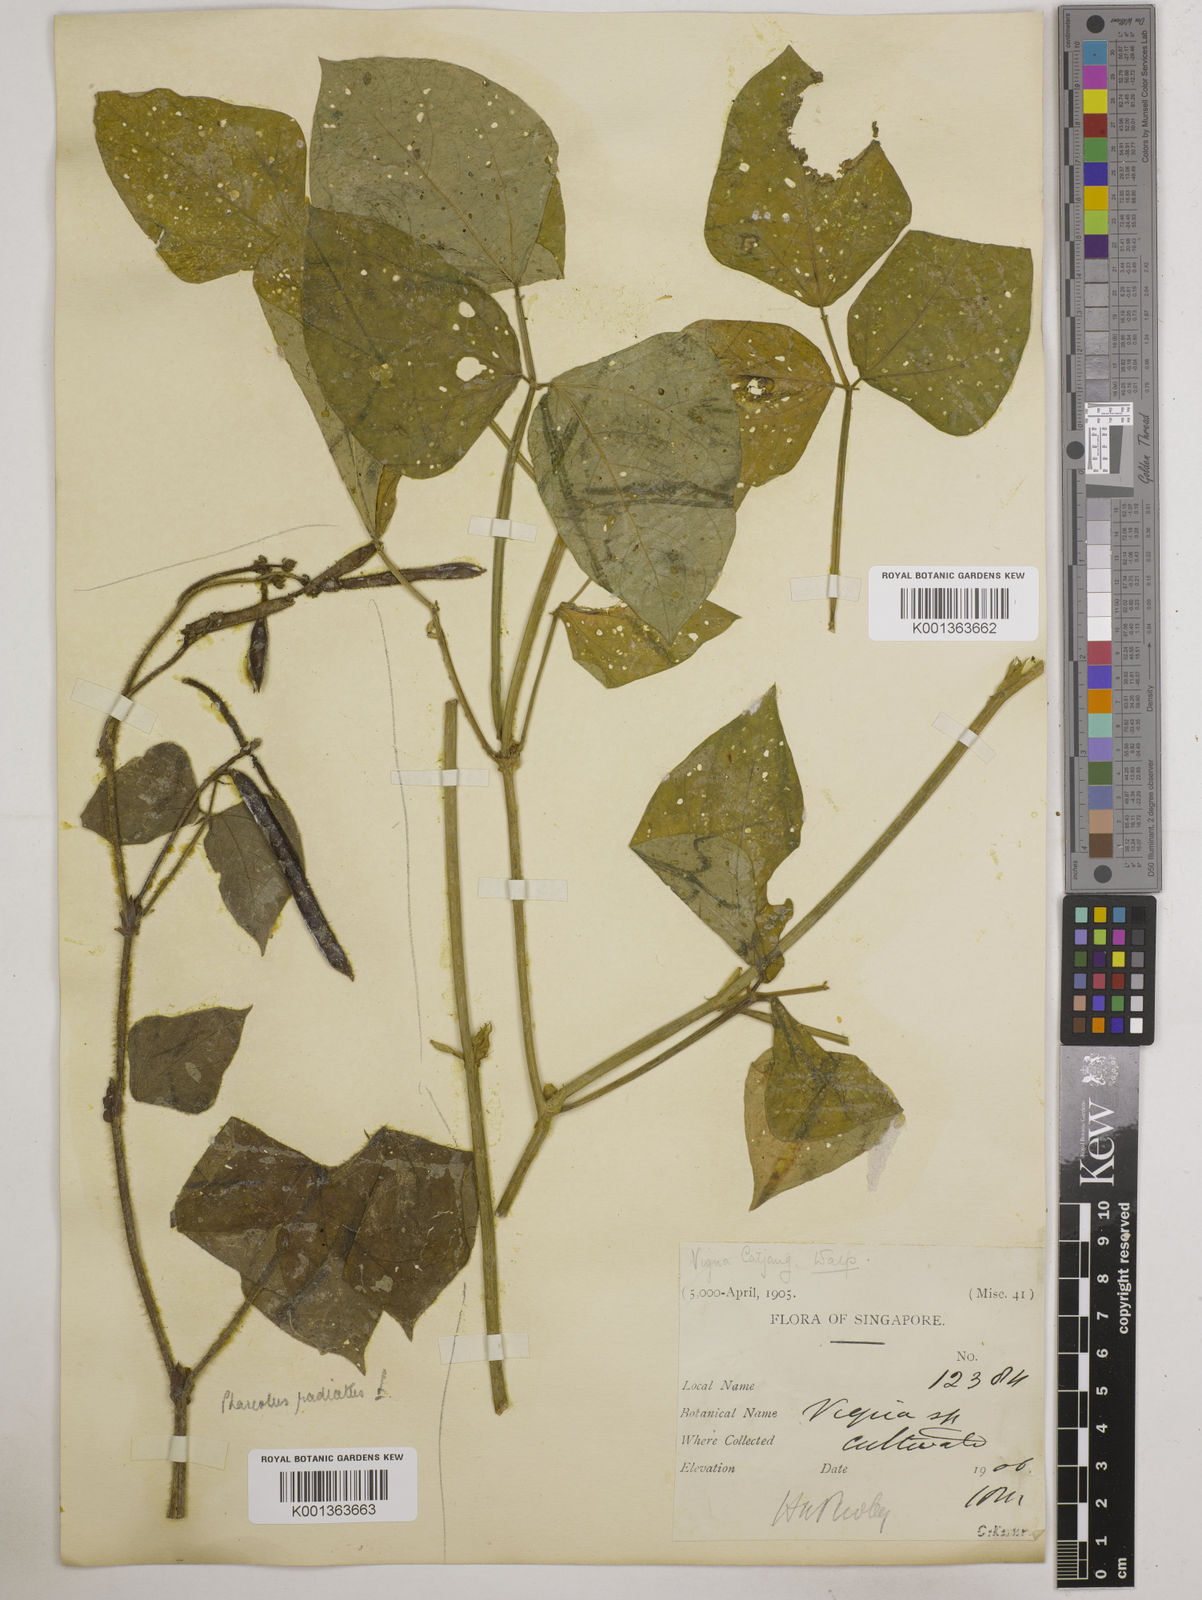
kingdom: Plantae
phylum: Tracheophyta
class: Magnoliopsida
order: Fabales
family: Fabaceae
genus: Vigna
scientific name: Vigna unguiculata
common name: Cowpea
